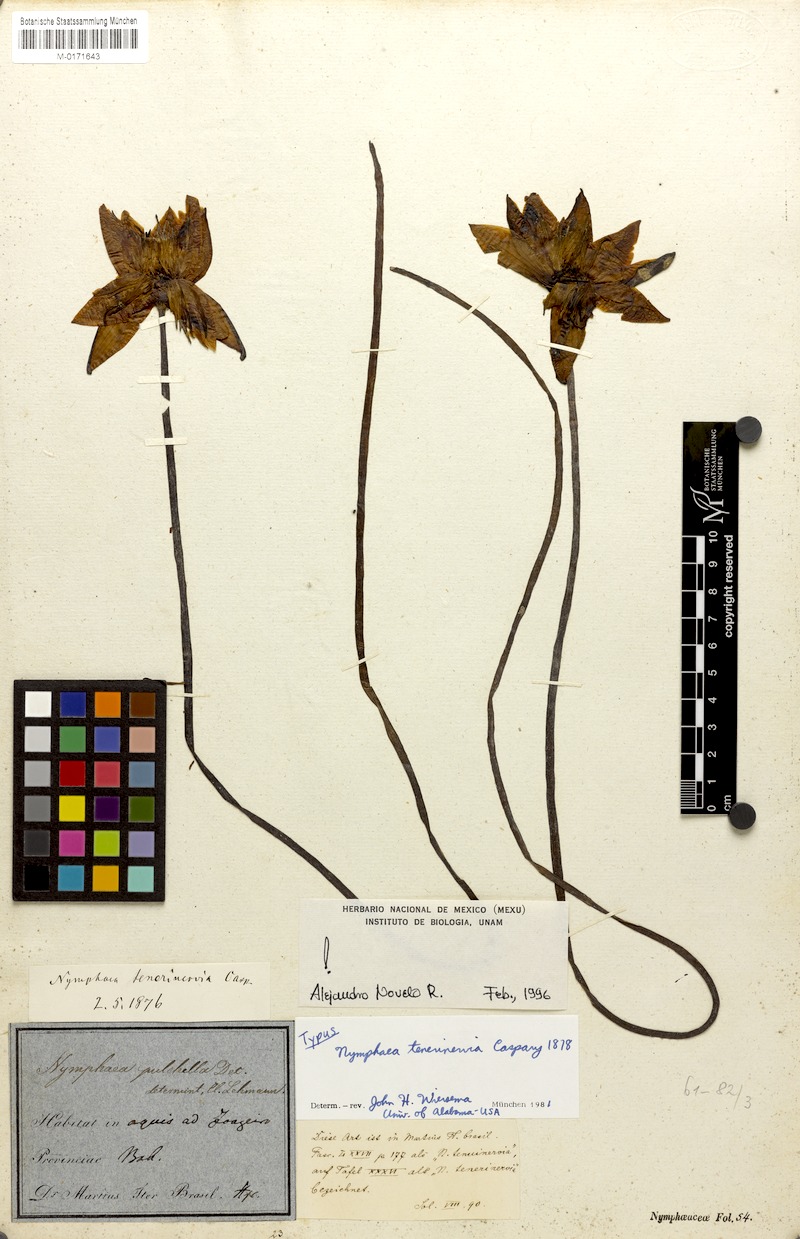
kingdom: Plantae
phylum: Tracheophyta
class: Magnoliopsida
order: Nymphaeales
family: Nymphaeaceae
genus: Nymphaea
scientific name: Nymphaea tenerinervia
